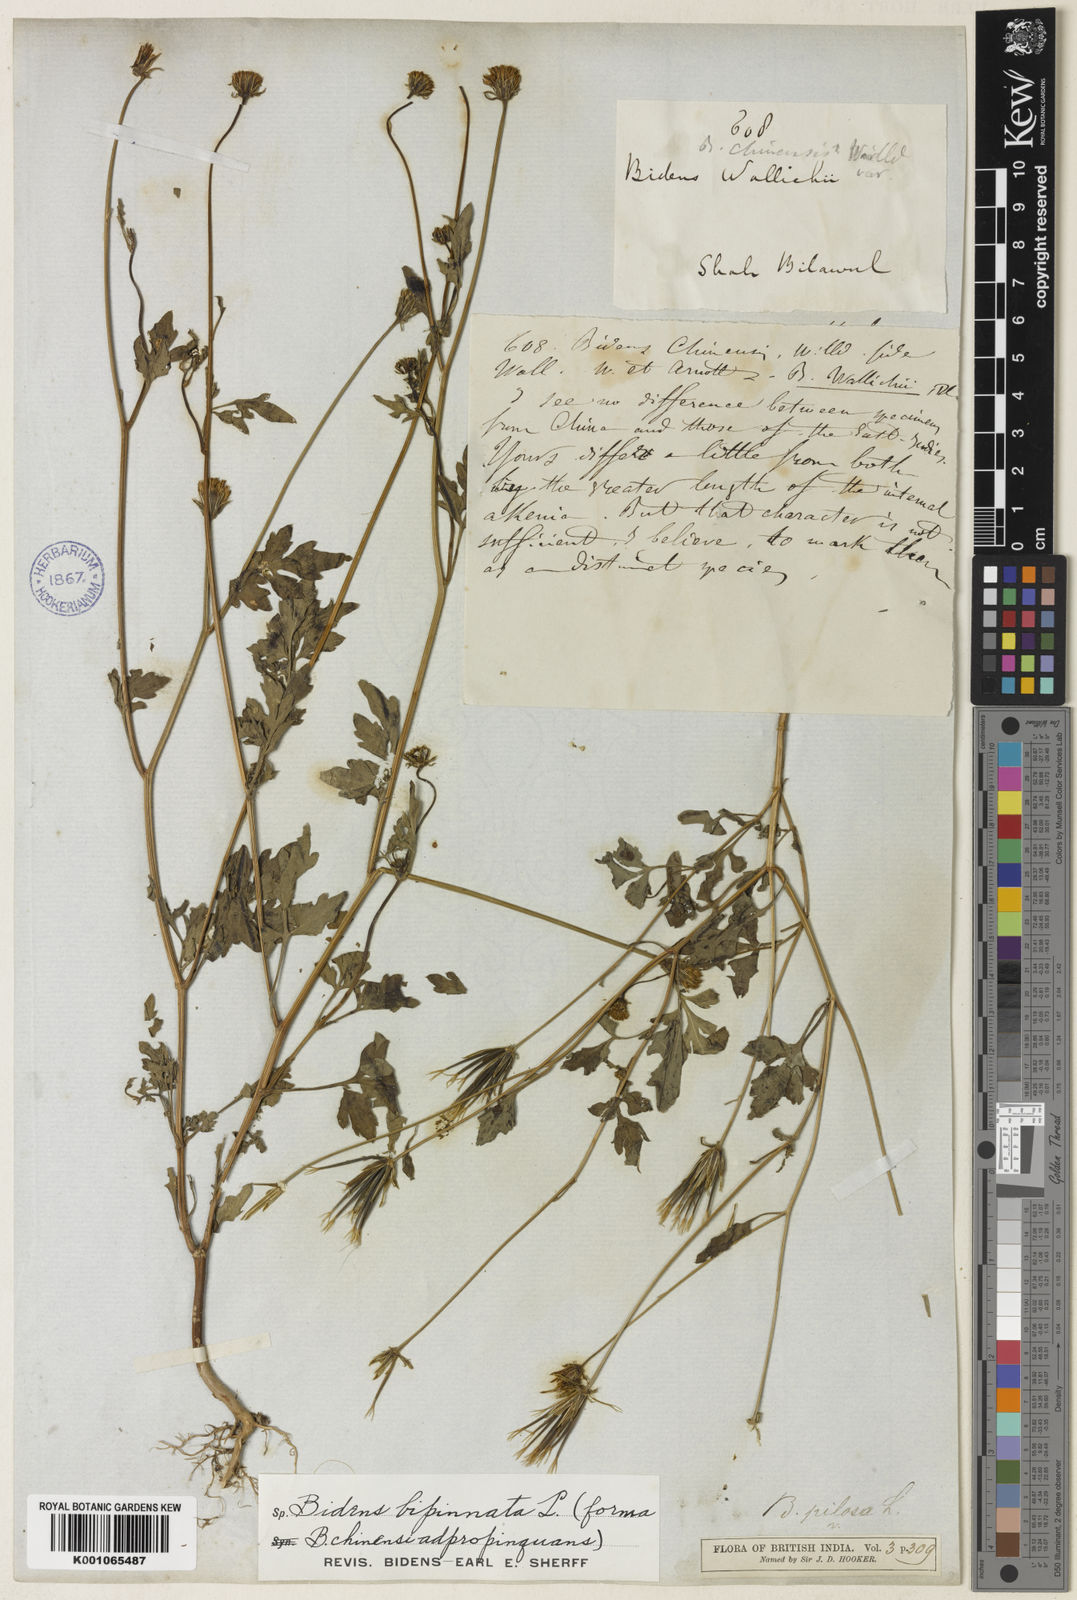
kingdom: Plantae
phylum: Tracheophyta
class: Magnoliopsida
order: Asterales
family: Asteraceae
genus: Bidens
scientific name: Bidens bipinnata
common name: Spanish-needles
